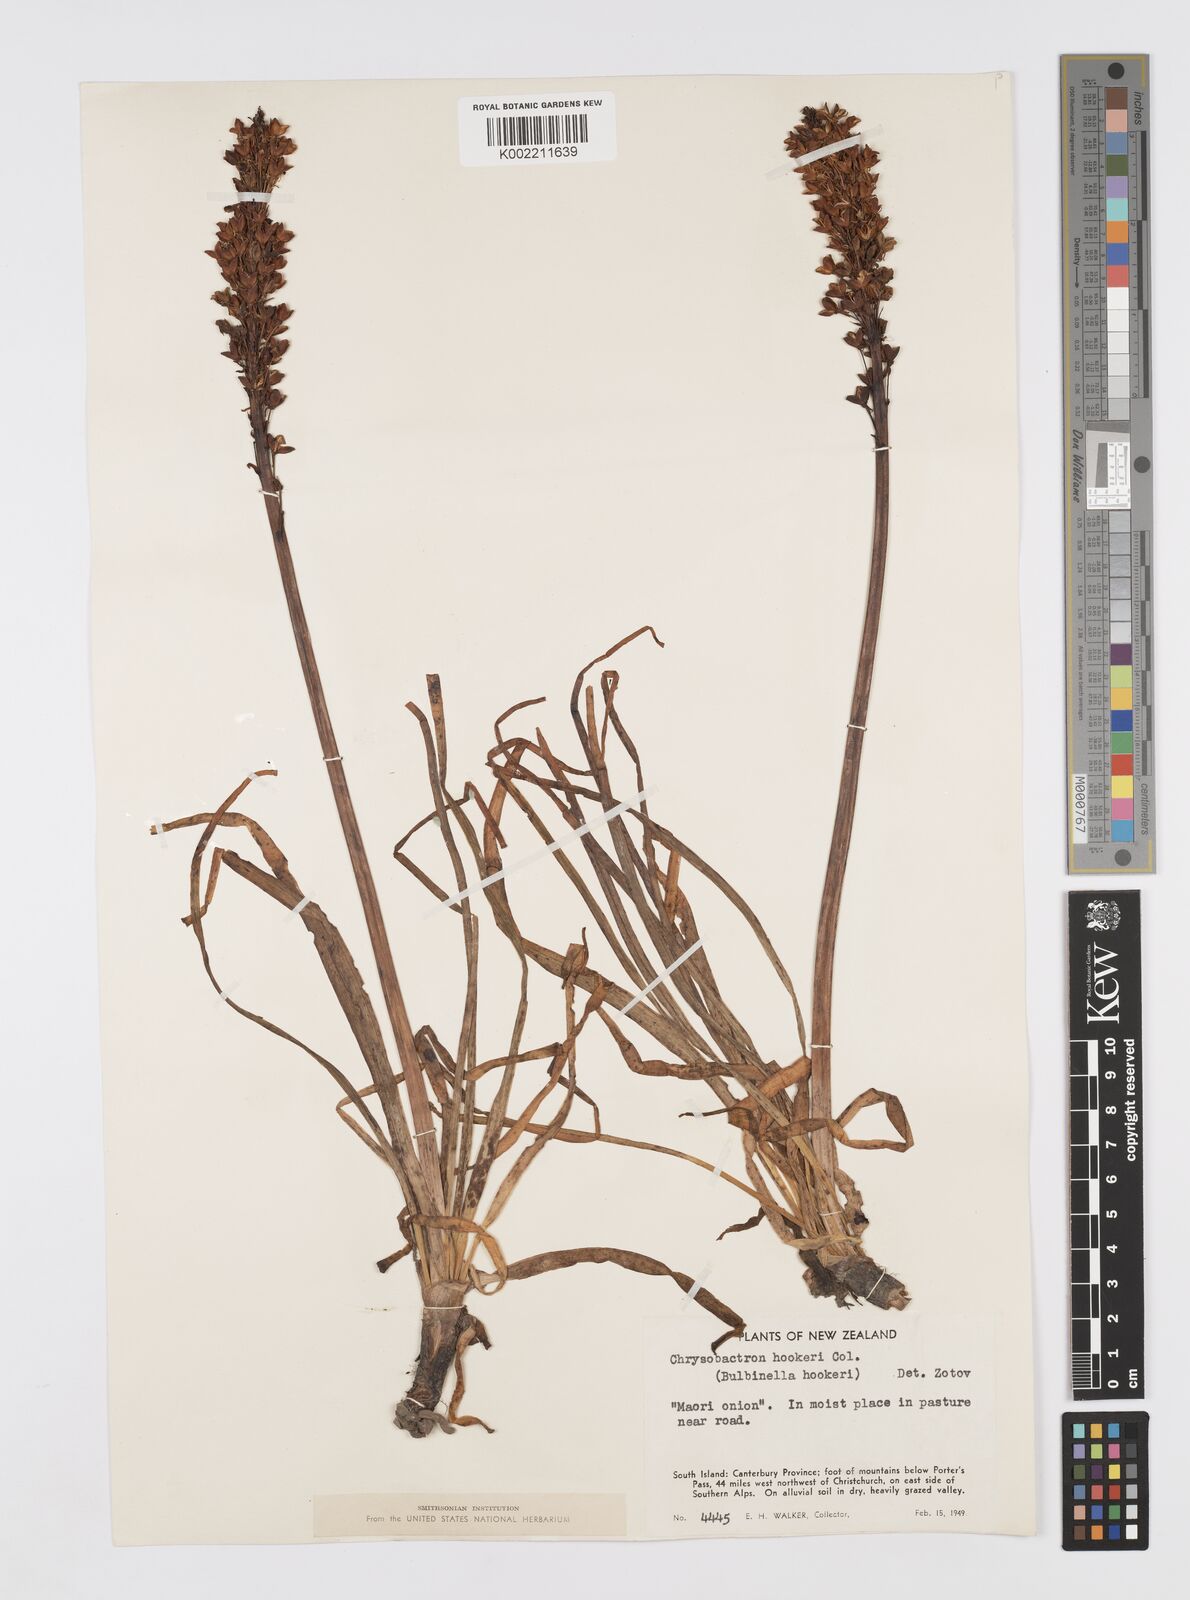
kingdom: Plantae
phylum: Tracheophyta
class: Liliopsida
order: Asparagales
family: Asphodelaceae
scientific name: Asphodelaceae
